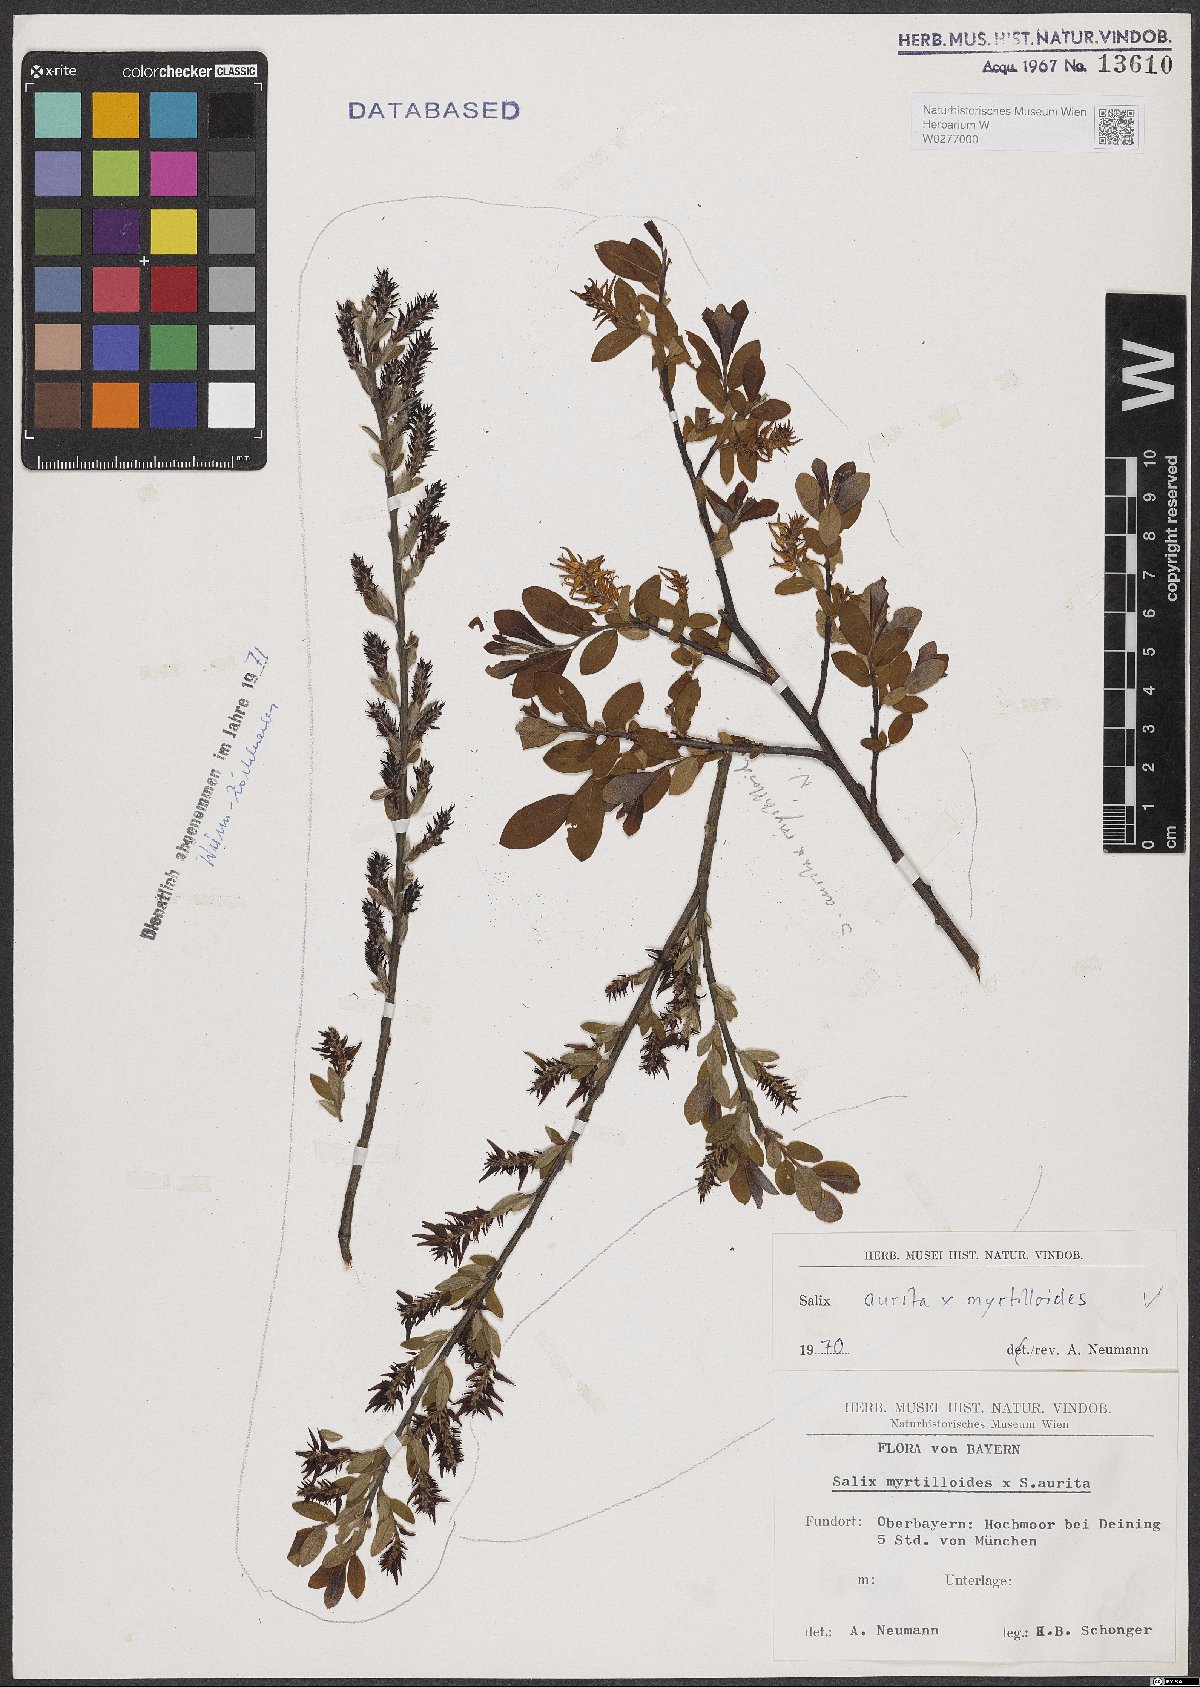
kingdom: Plantae
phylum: Tracheophyta
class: Magnoliopsida
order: Malpighiales
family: Salicaceae
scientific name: Salicaceae
